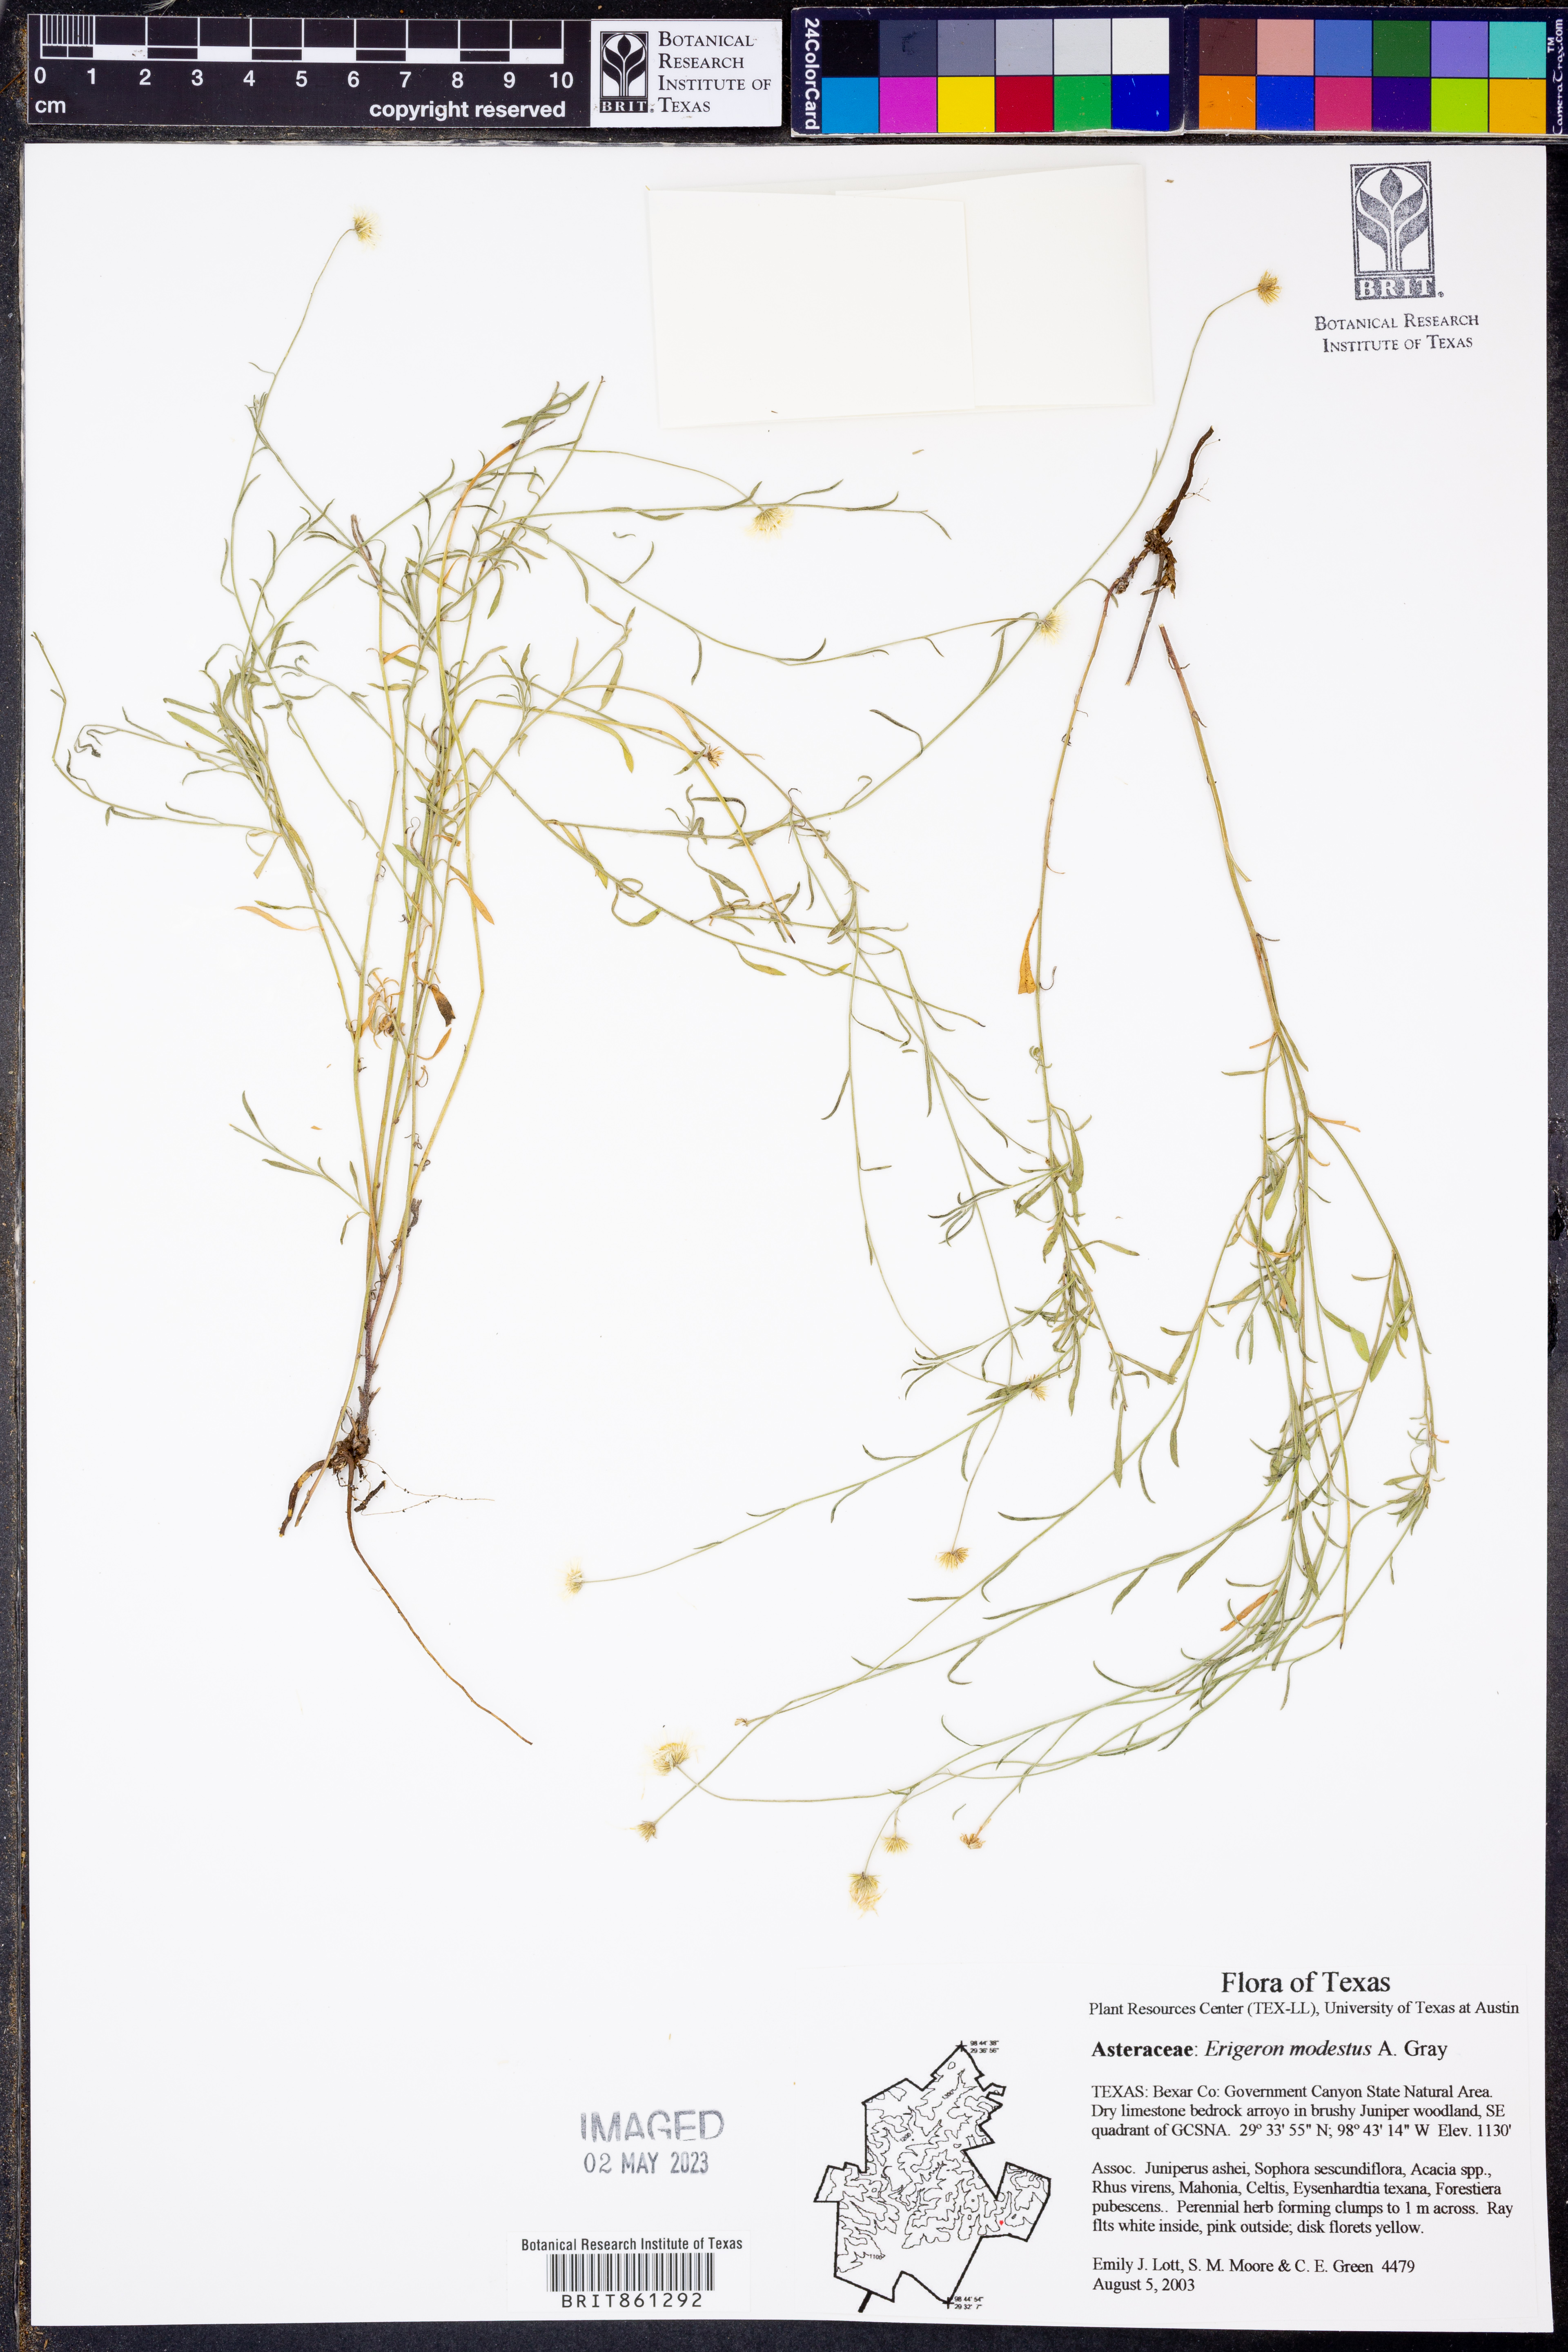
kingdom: Plantae
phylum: Tracheophyta
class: Magnoliopsida
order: Asterales
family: Asteraceae
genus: Erigeron
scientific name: Erigeron modestus
